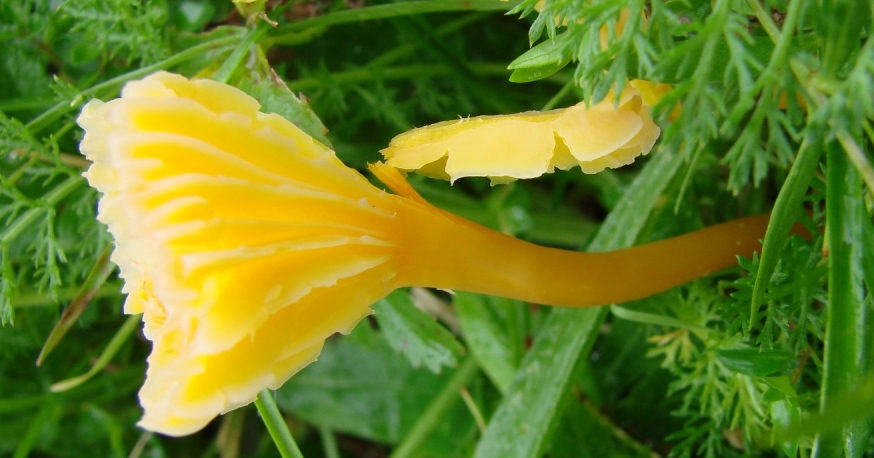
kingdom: Fungi
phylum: Basidiomycota
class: Agaricomycetes
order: Agaricales
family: Hygrophoraceae
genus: Hygrocybe
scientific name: Hygrocybe cantharellus
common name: kantarel-vokshat
